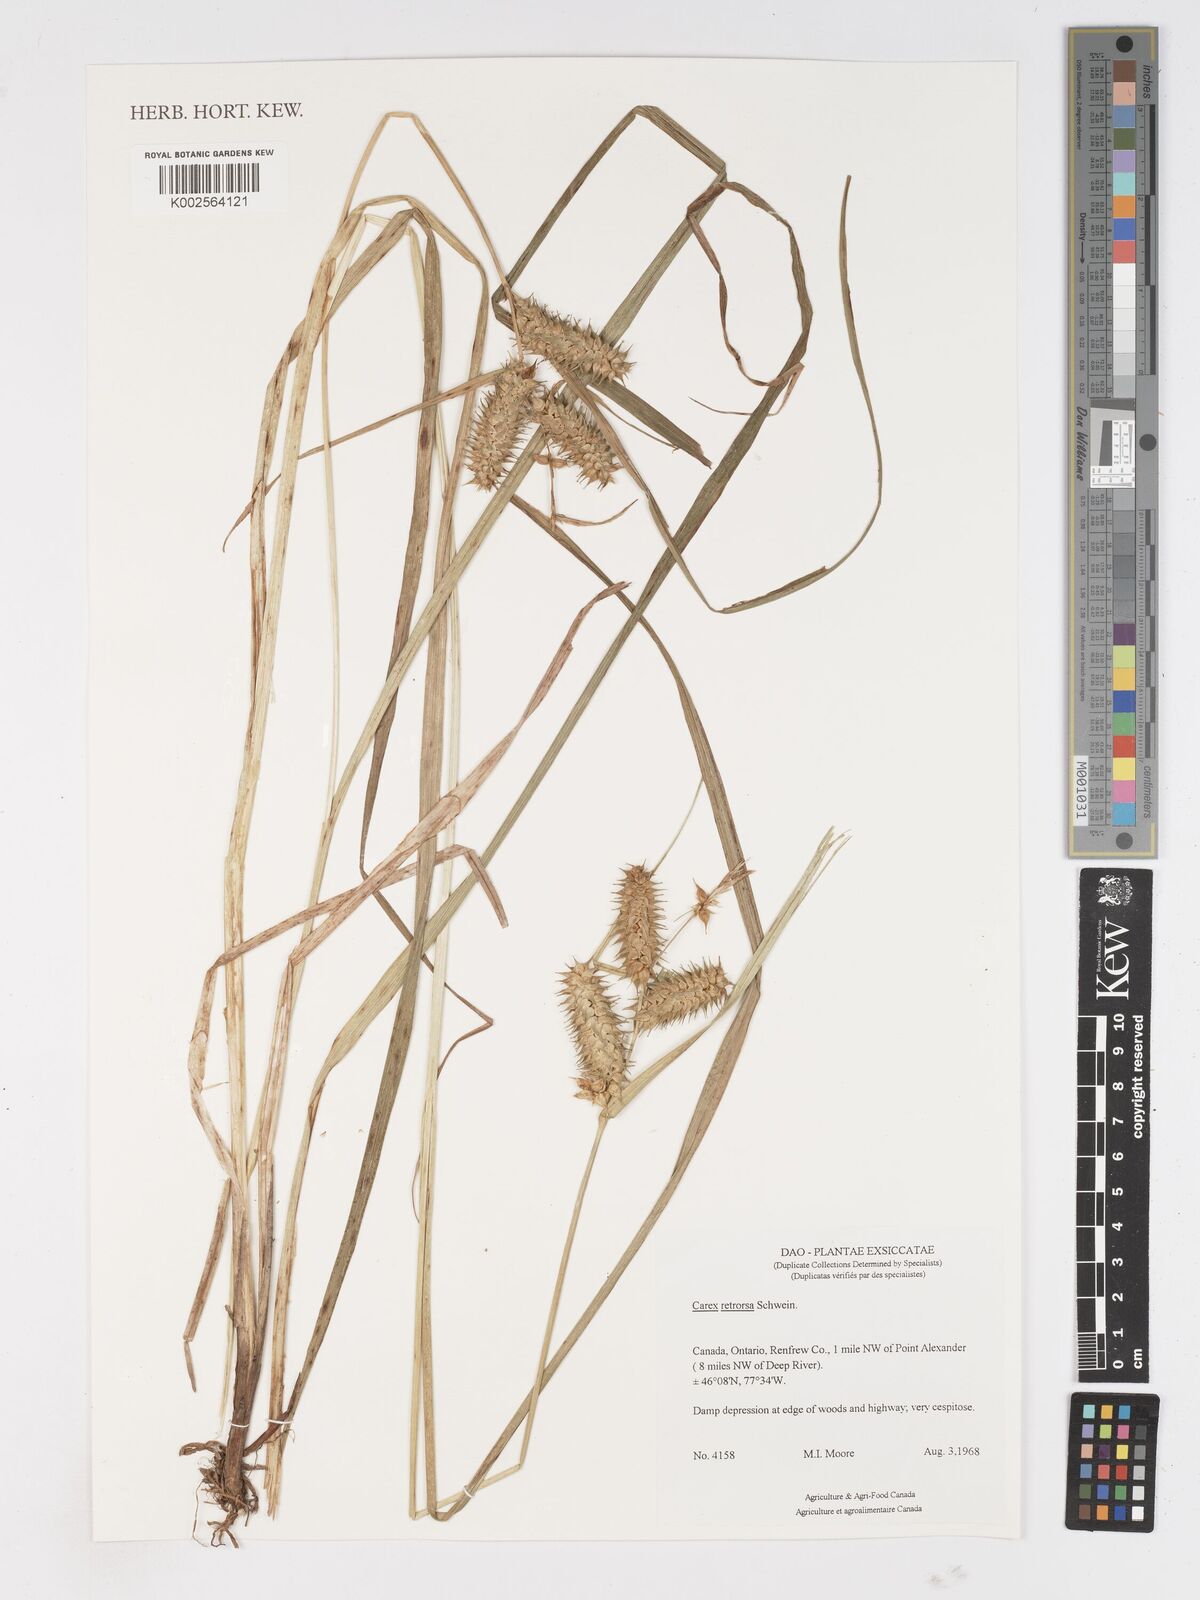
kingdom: Plantae
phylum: Tracheophyta
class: Liliopsida
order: Poales
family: Cyperaceae
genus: Carex
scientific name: Carex retrorsa
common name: Knot-sheath sedge
